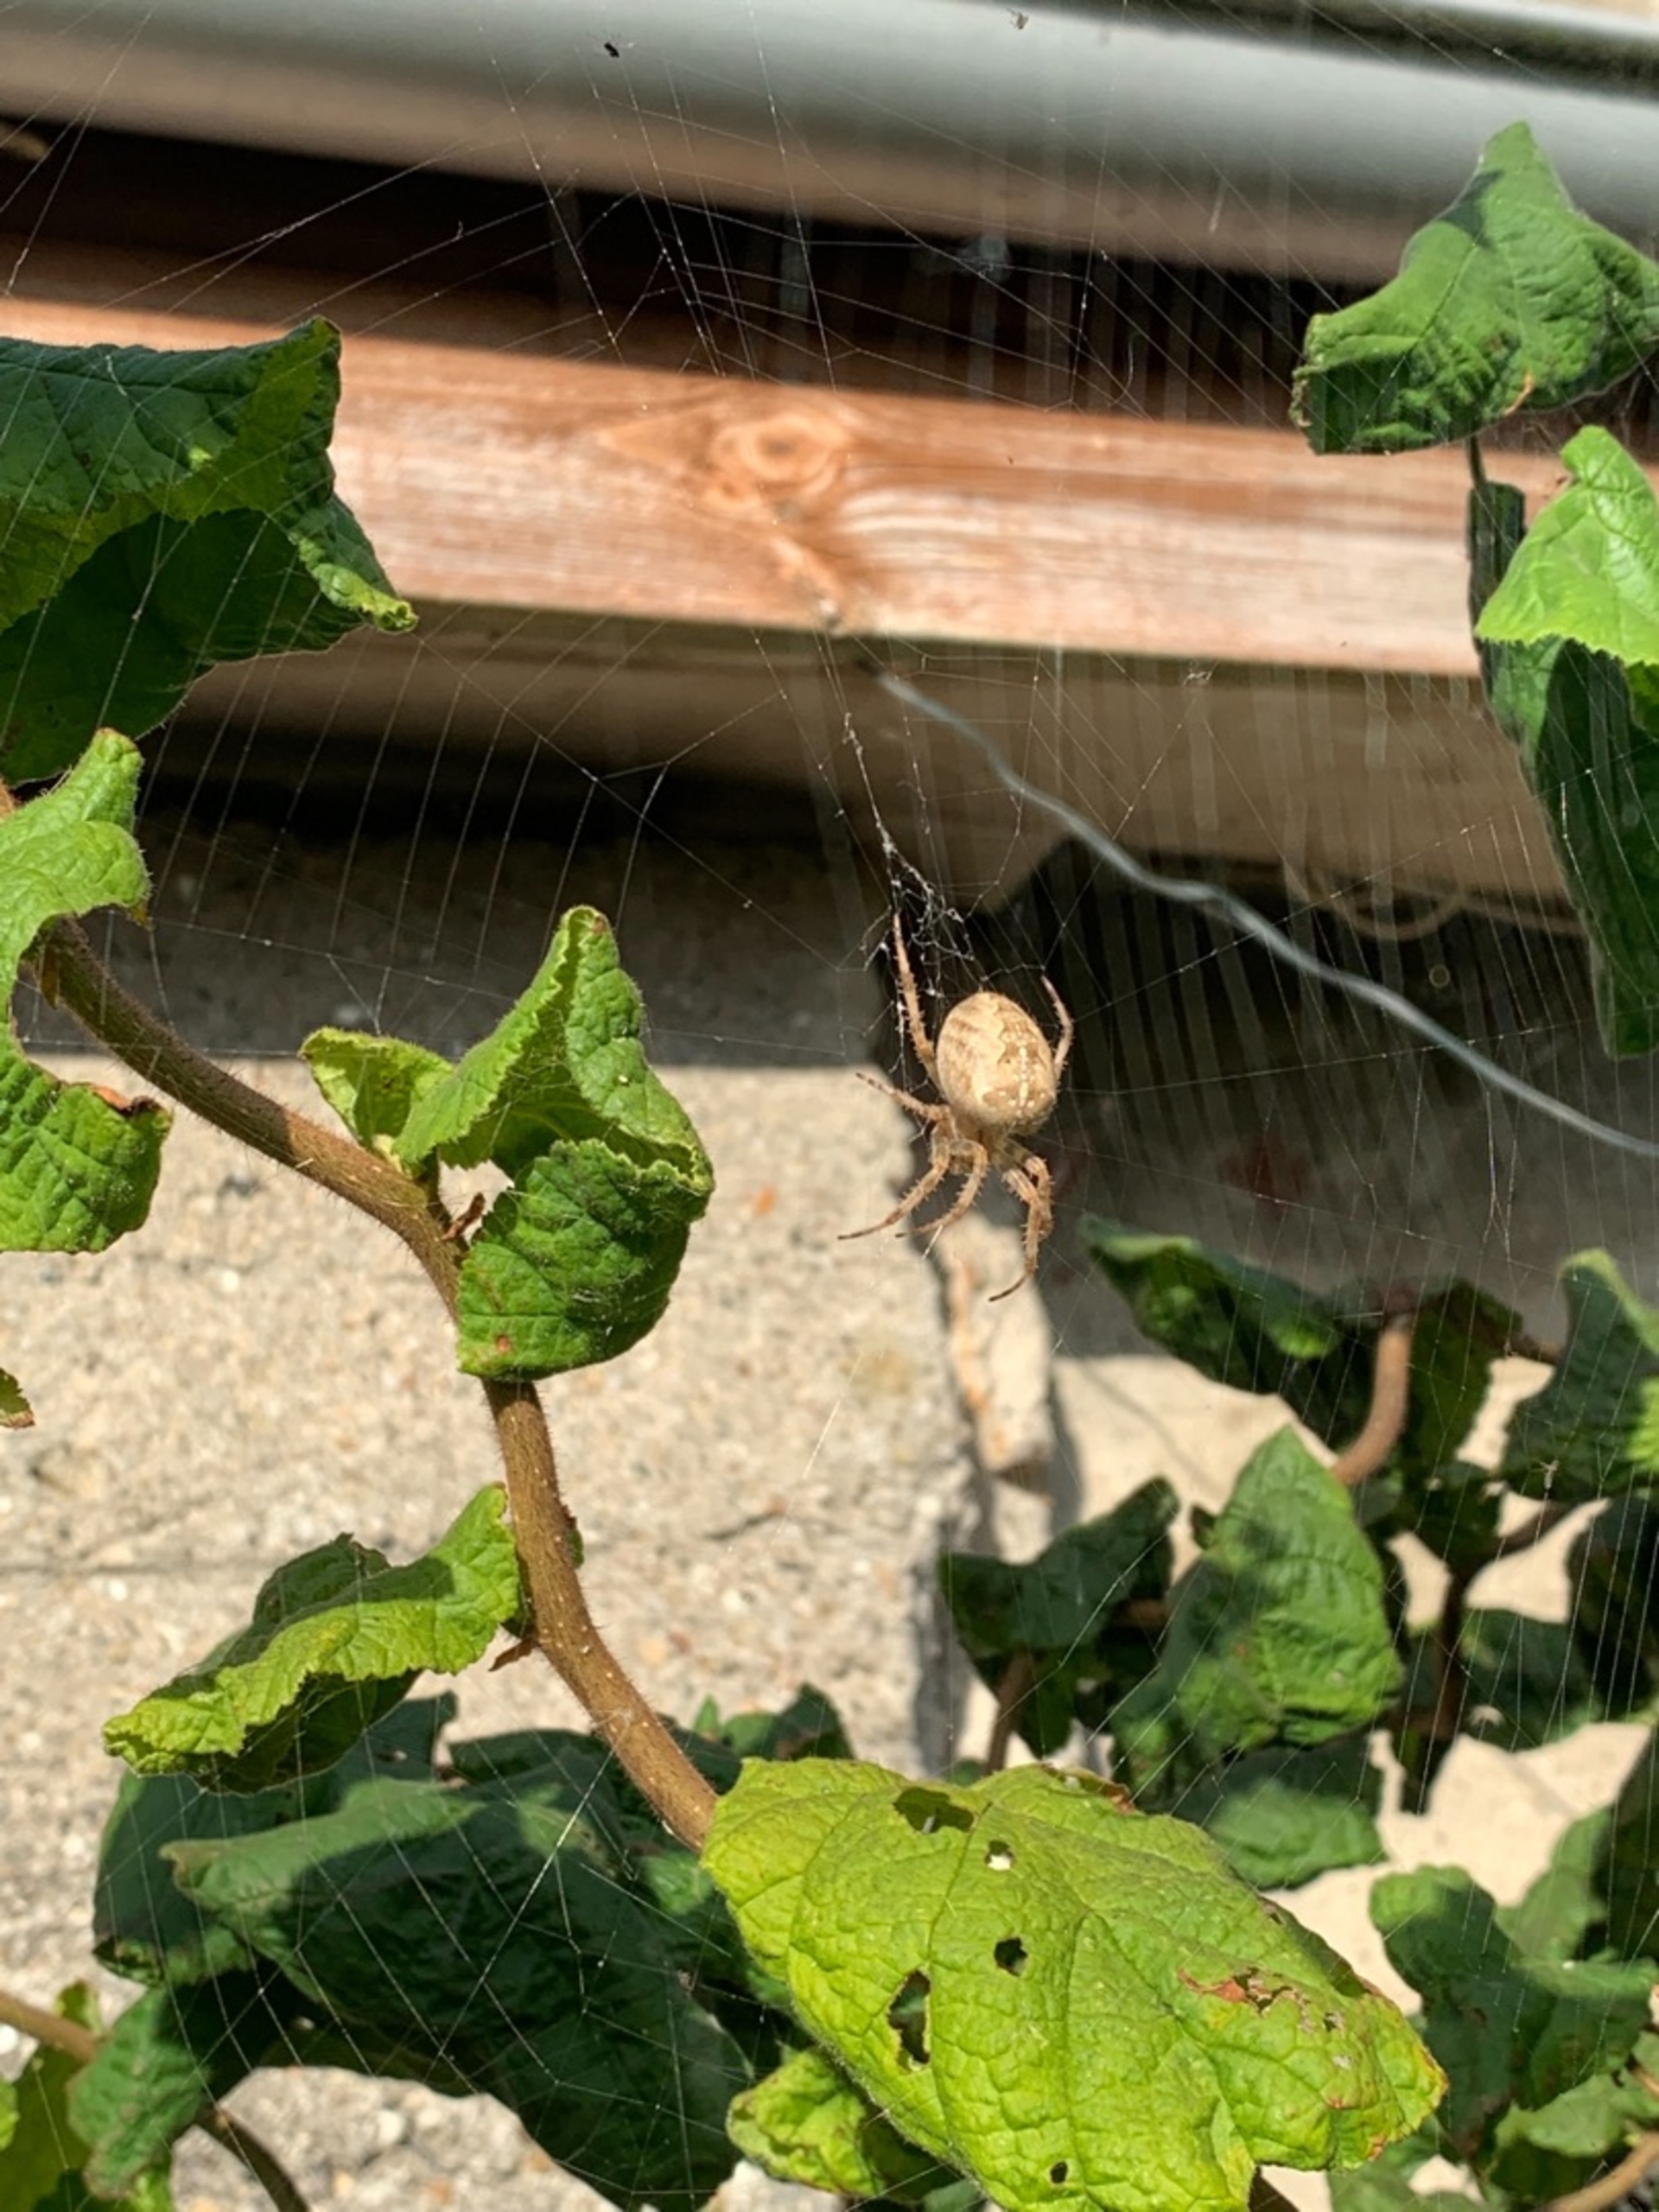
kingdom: Animalia
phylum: Arthropoda
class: Arachnida
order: Araneae
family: Araneidae
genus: Araneus
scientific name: Araneus diadematus
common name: Korsedderkop
